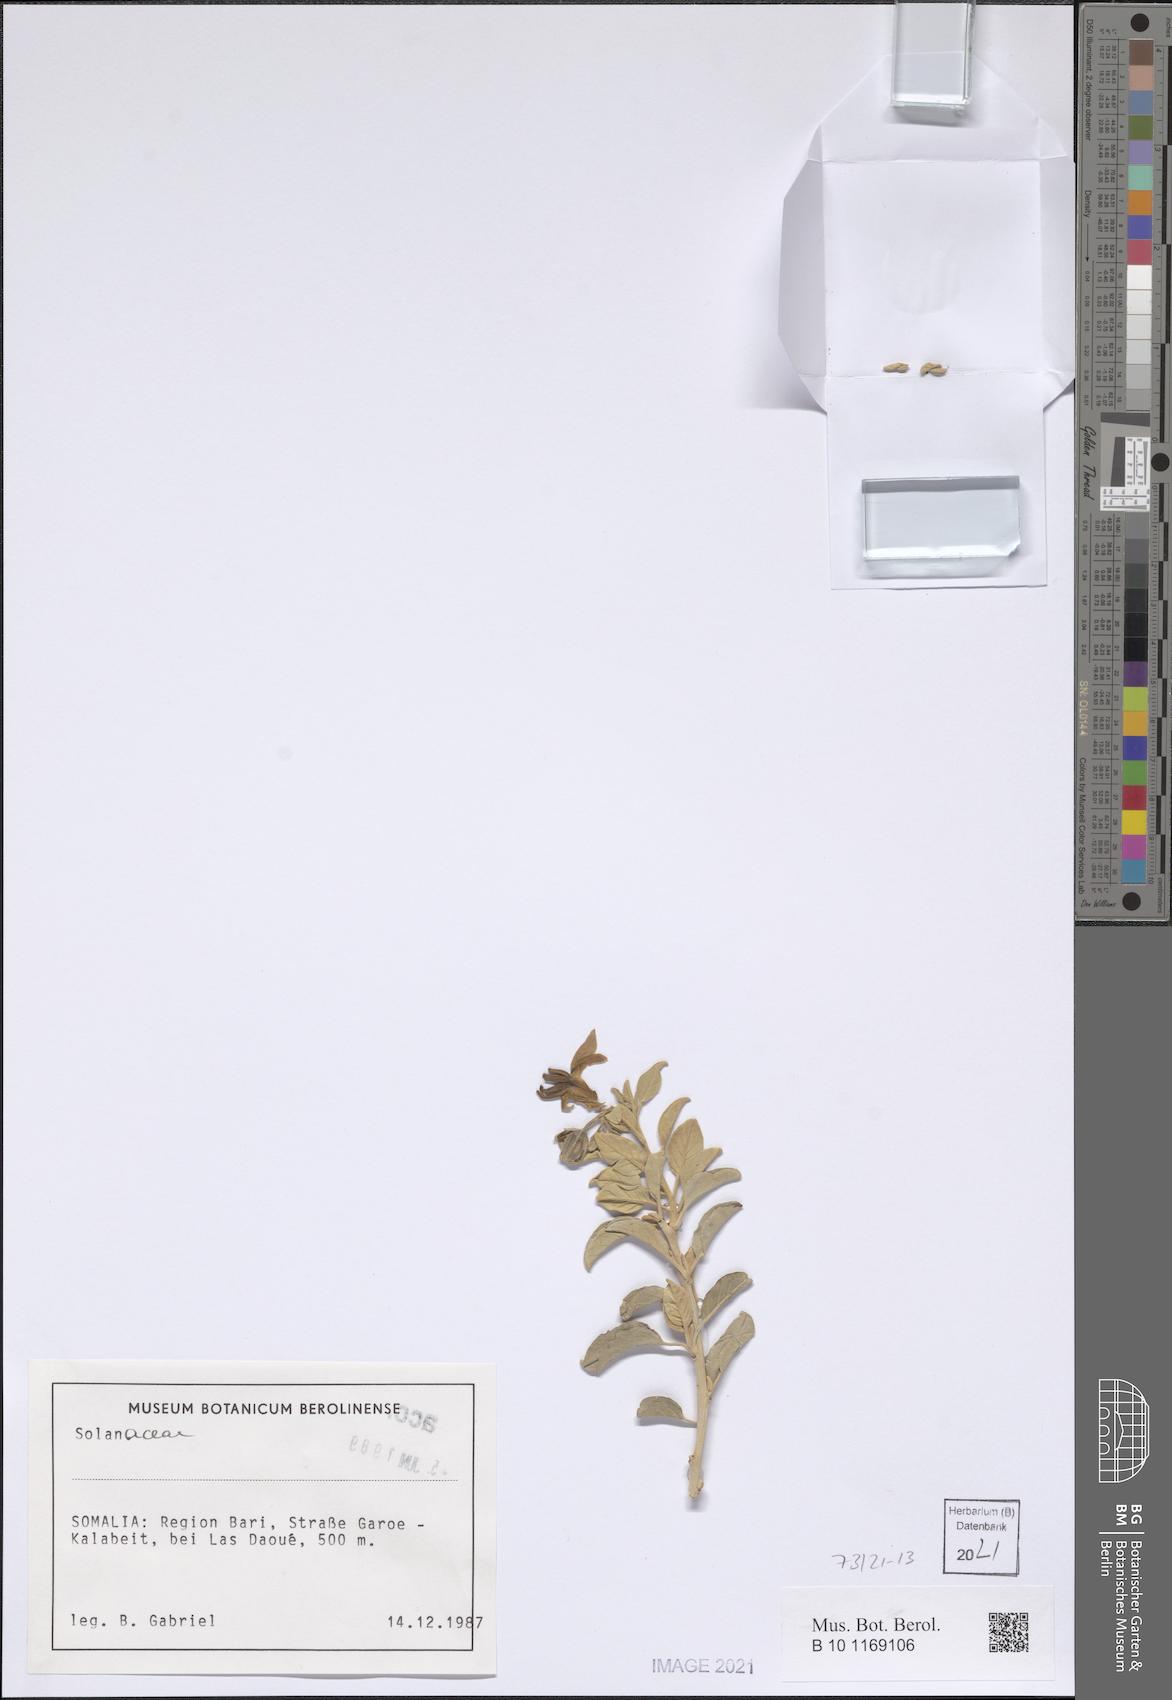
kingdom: Plantae
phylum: Tracheophyta
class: Magnoliopsida
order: Solanales
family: Solanaceae
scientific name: Solanaceae
